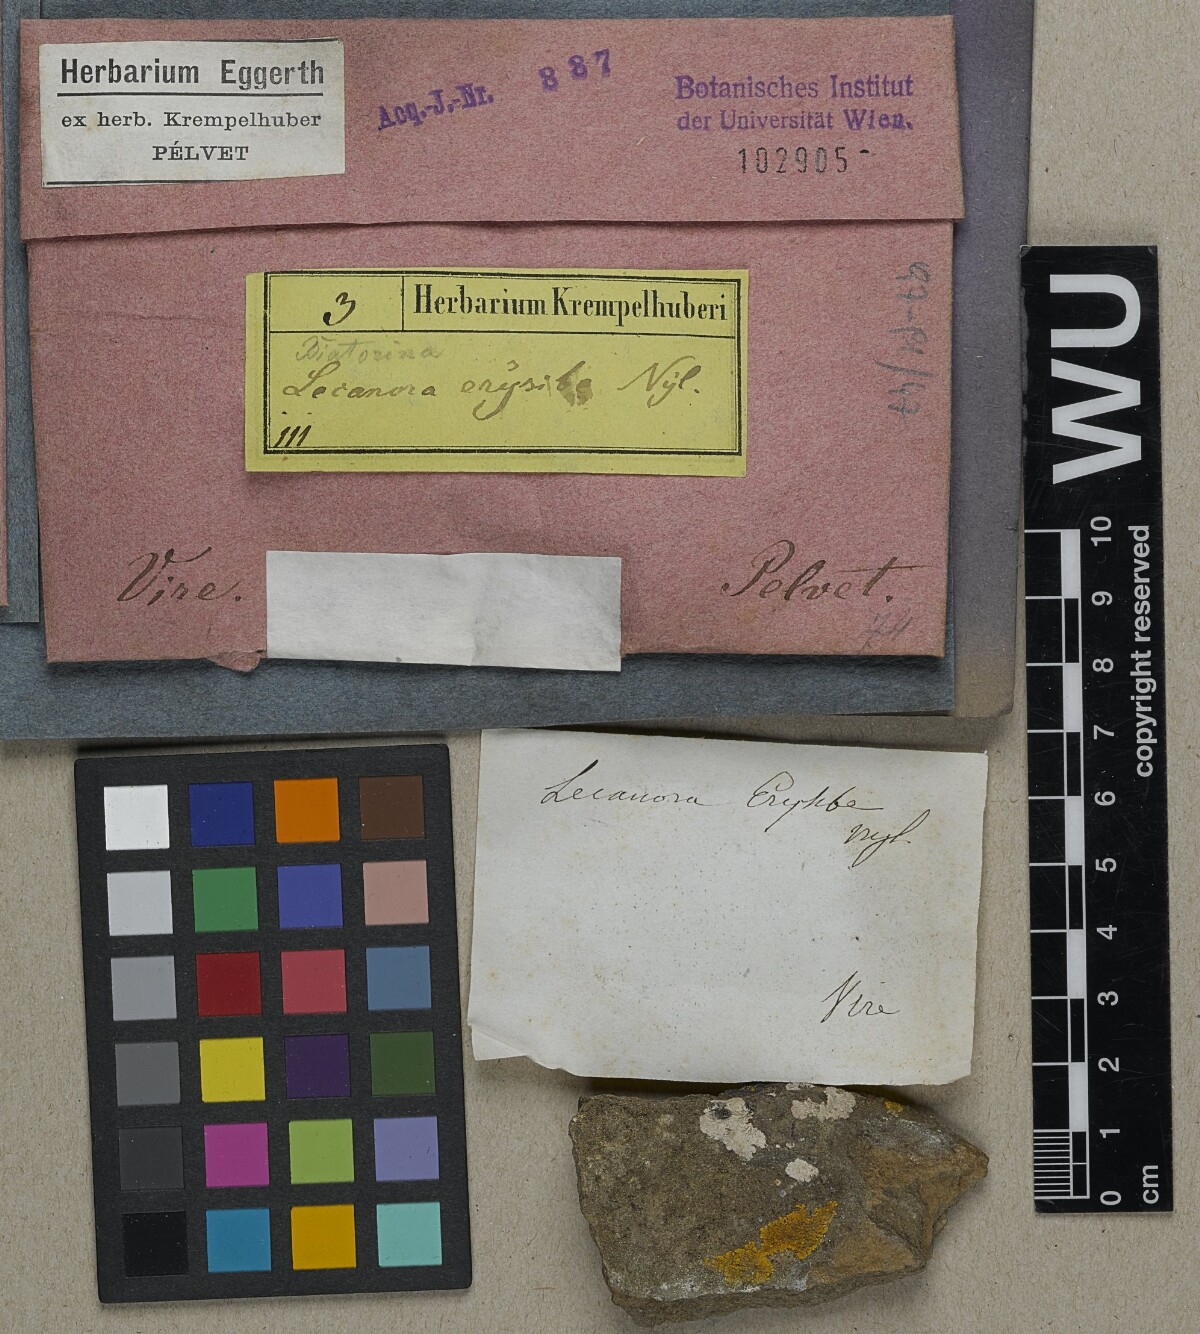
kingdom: Fungi
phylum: Ascomycota
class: Lecanoromycetes
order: Lecanorales
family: Ramalinaceae
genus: Lecania
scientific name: Lecania erysibe
